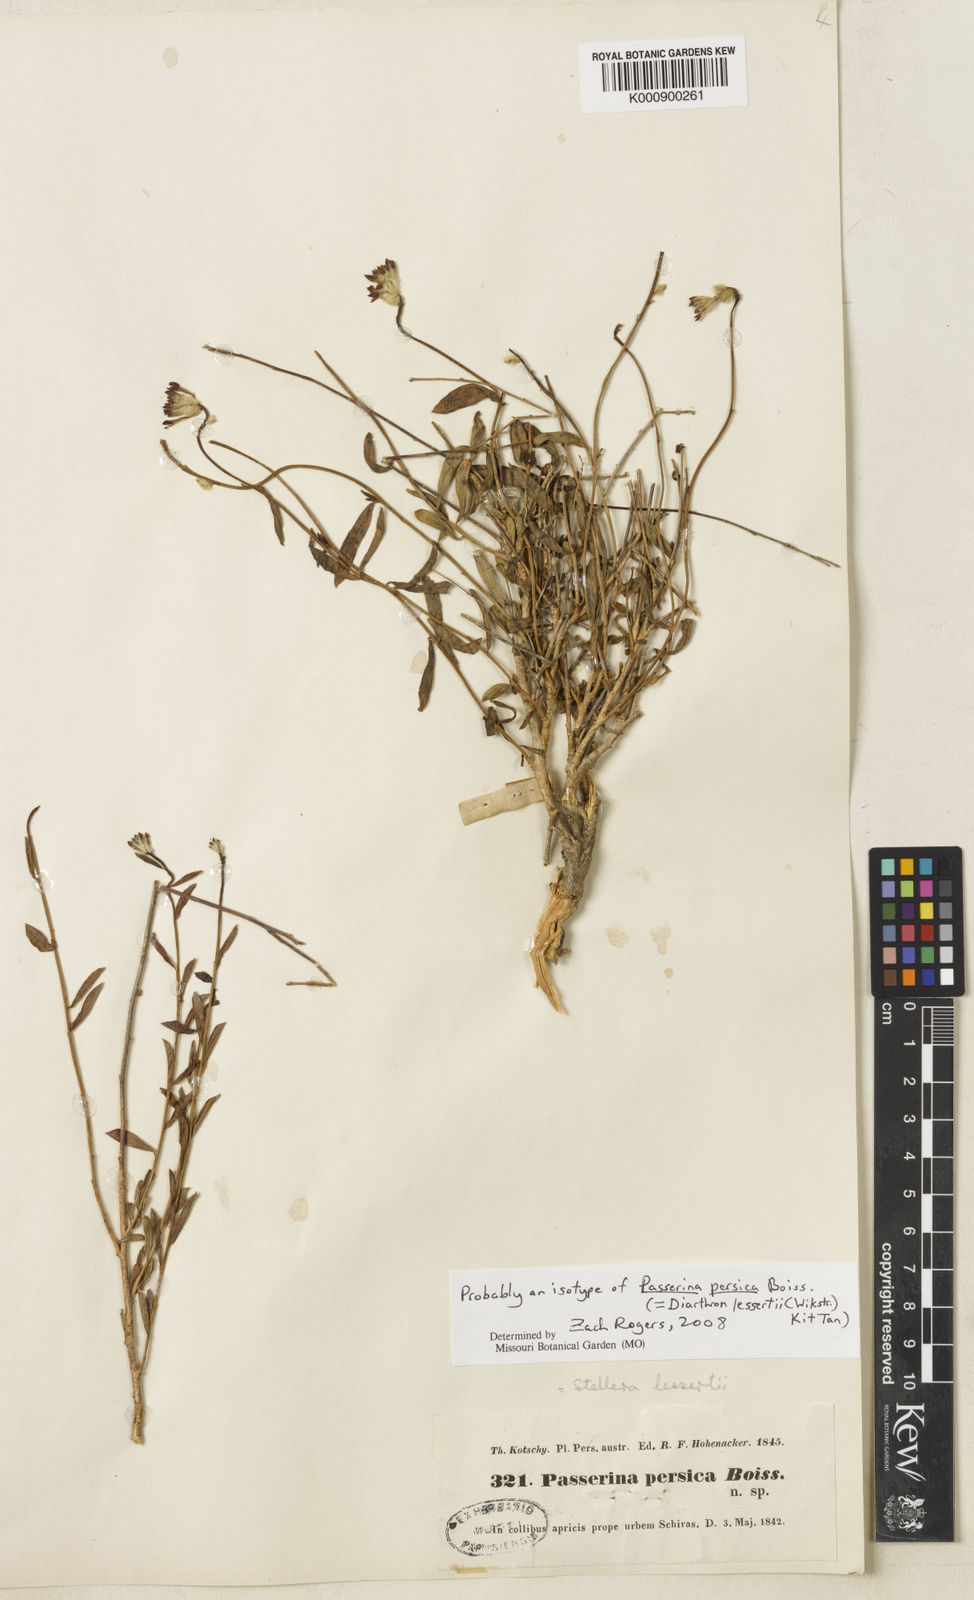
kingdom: Plantae
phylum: Tracheophyta
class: Magnoliopsida
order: Malvales
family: Thymelaeaceae
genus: Diarthron
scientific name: Diarthron lessertii
